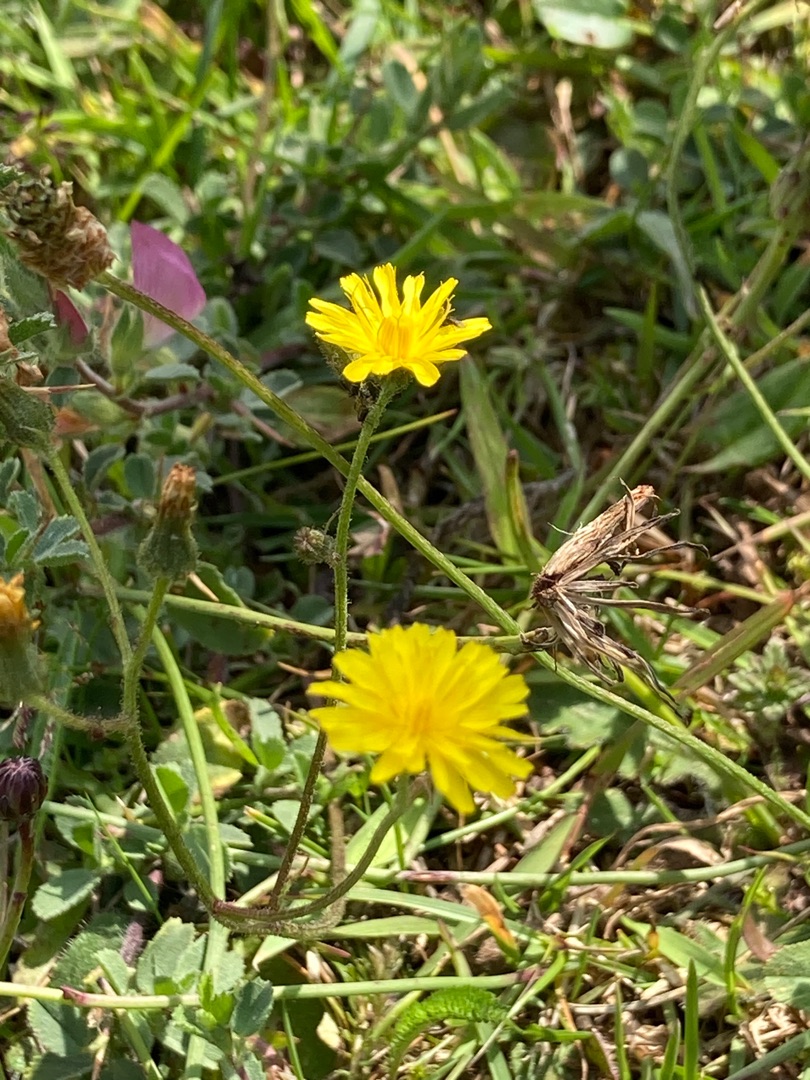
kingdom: Plantae
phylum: Tracheophyta
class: Magnoliopsida
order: Asterales
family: Asteraceae
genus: Crepis
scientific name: Crepis capillaris
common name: Grøn høgeskæg
